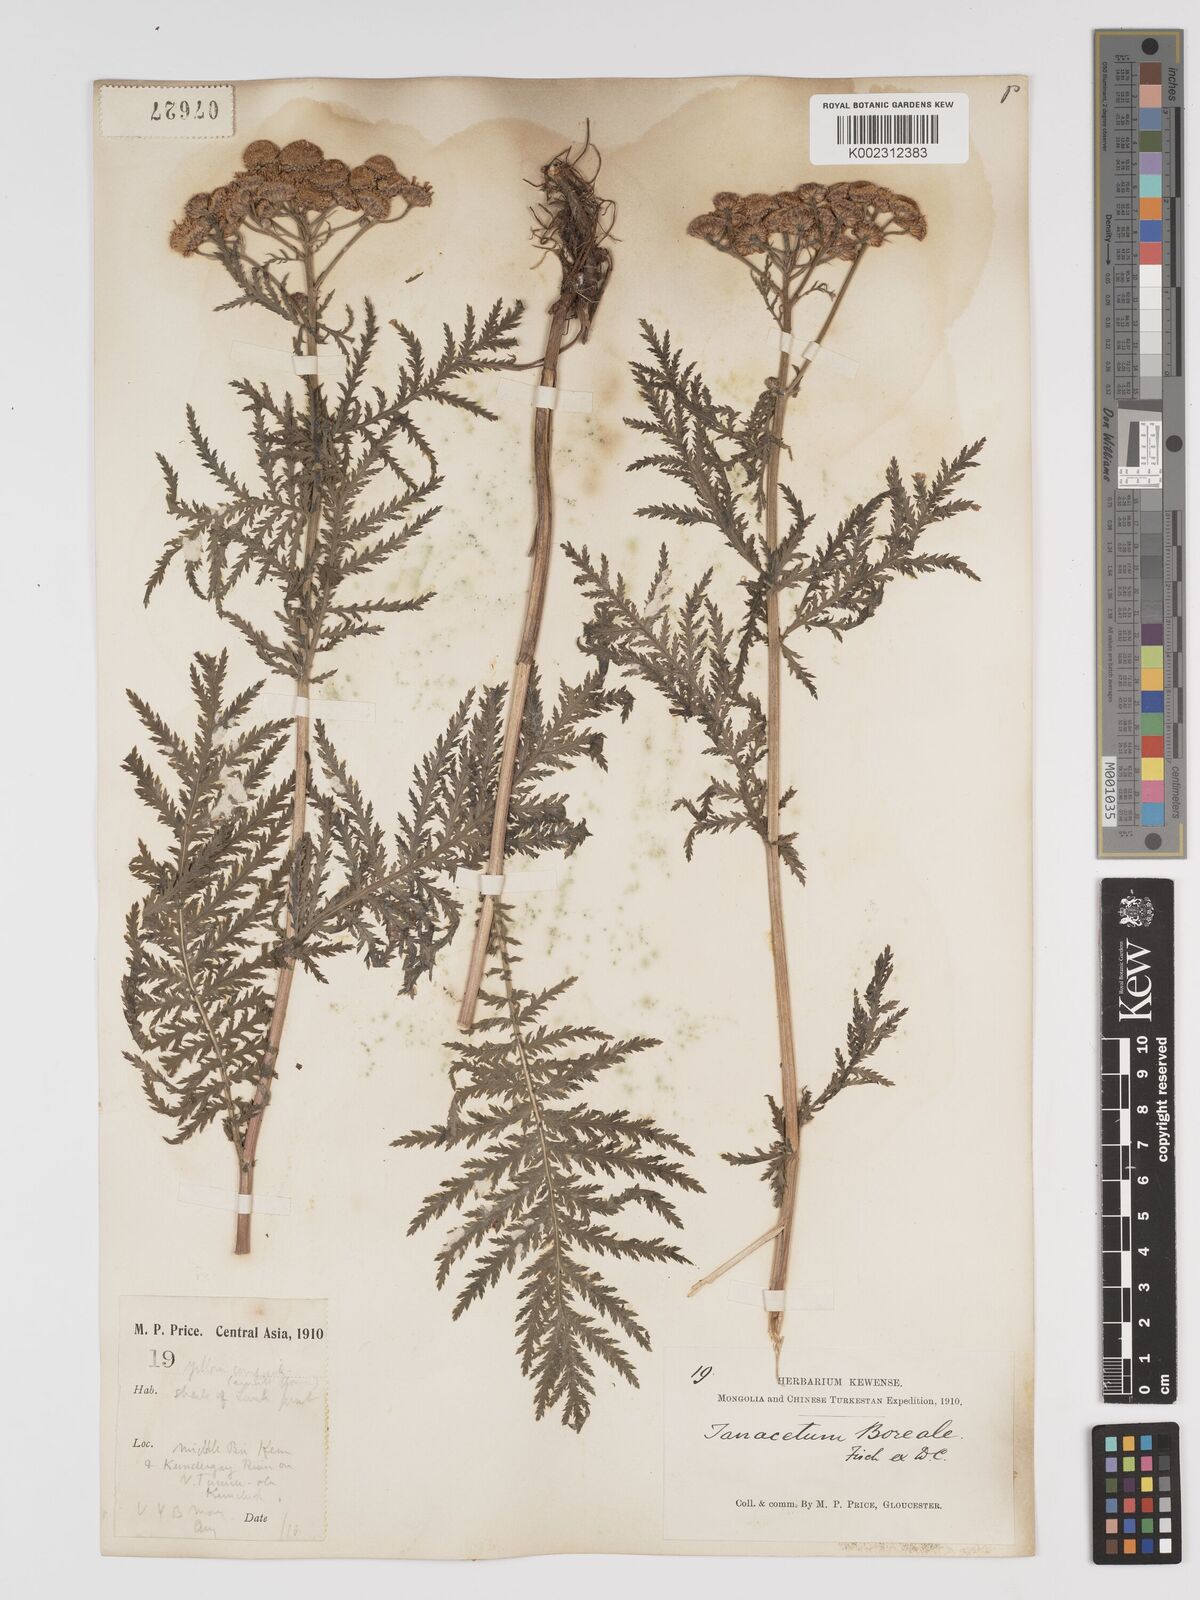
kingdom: Plantae
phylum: Tracheophyta
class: Magnoliopsida
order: Asterales
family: Asteraceae
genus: Tanacetum
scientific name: Tanacetum vulgare
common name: Common tansy
